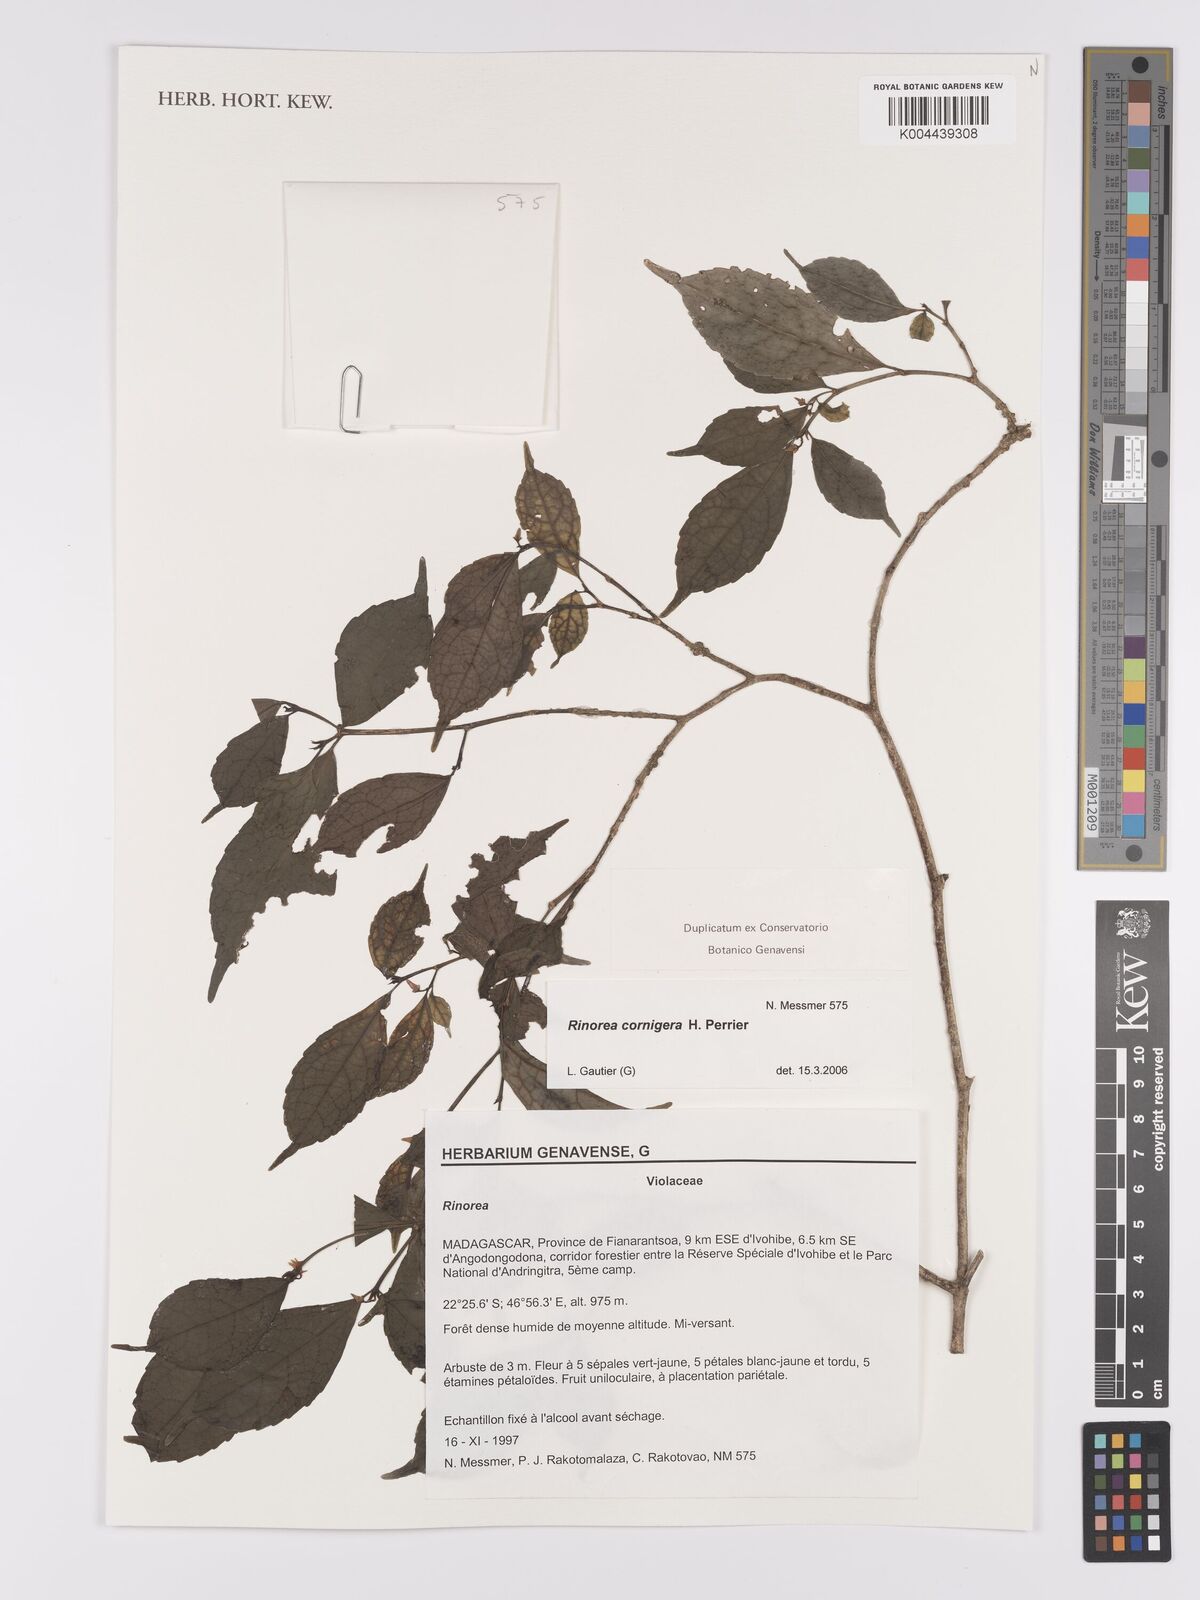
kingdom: Plantae
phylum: Tracheophyta
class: Magnoliopsida
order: Malpighiales
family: Violaceae
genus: Rinorea
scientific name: Rinorea cornigera
